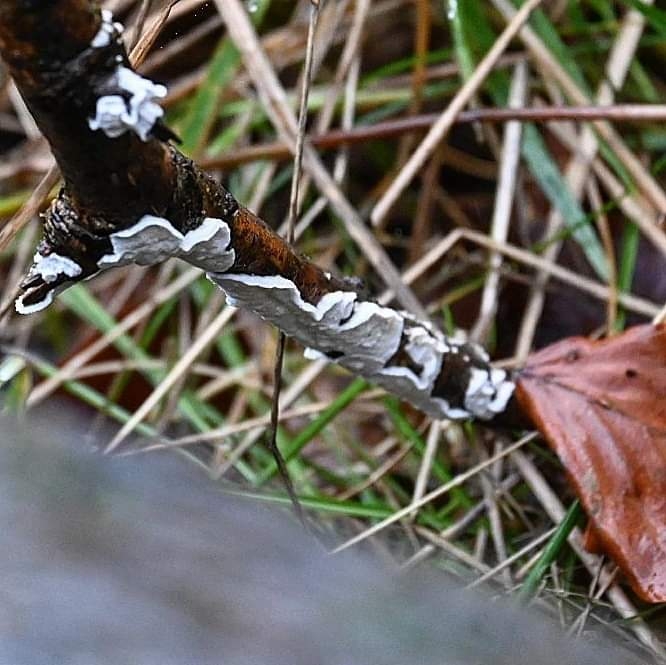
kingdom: Fungi
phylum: Basidiomycota
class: Agaricomycetes
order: Polyporales
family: Irpicaceae
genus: Byssomerulius
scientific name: Byssomerulius corium
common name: læder-åresvamp
